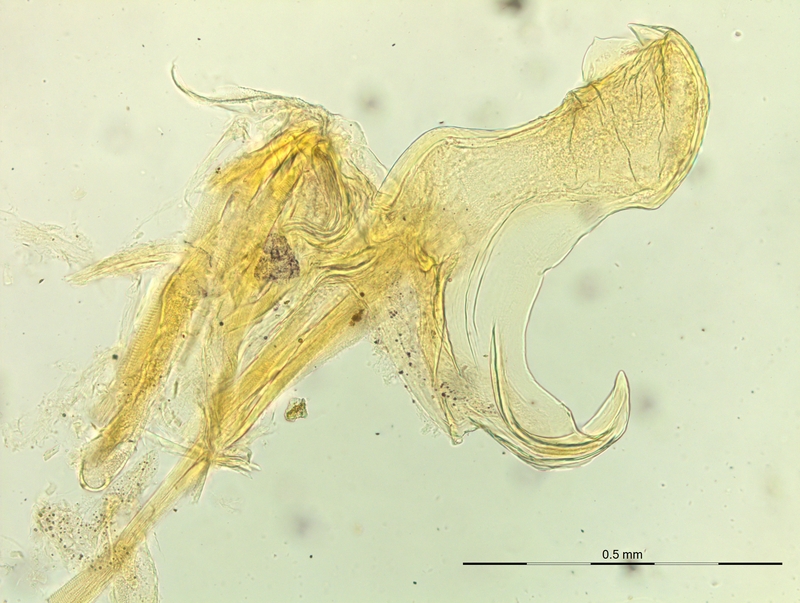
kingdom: Animalia
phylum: Arthropoda
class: Diplopoda
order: Chordeumatida
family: Craspedosomatidae
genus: Rhymogona
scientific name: Rhymogona montivaga
